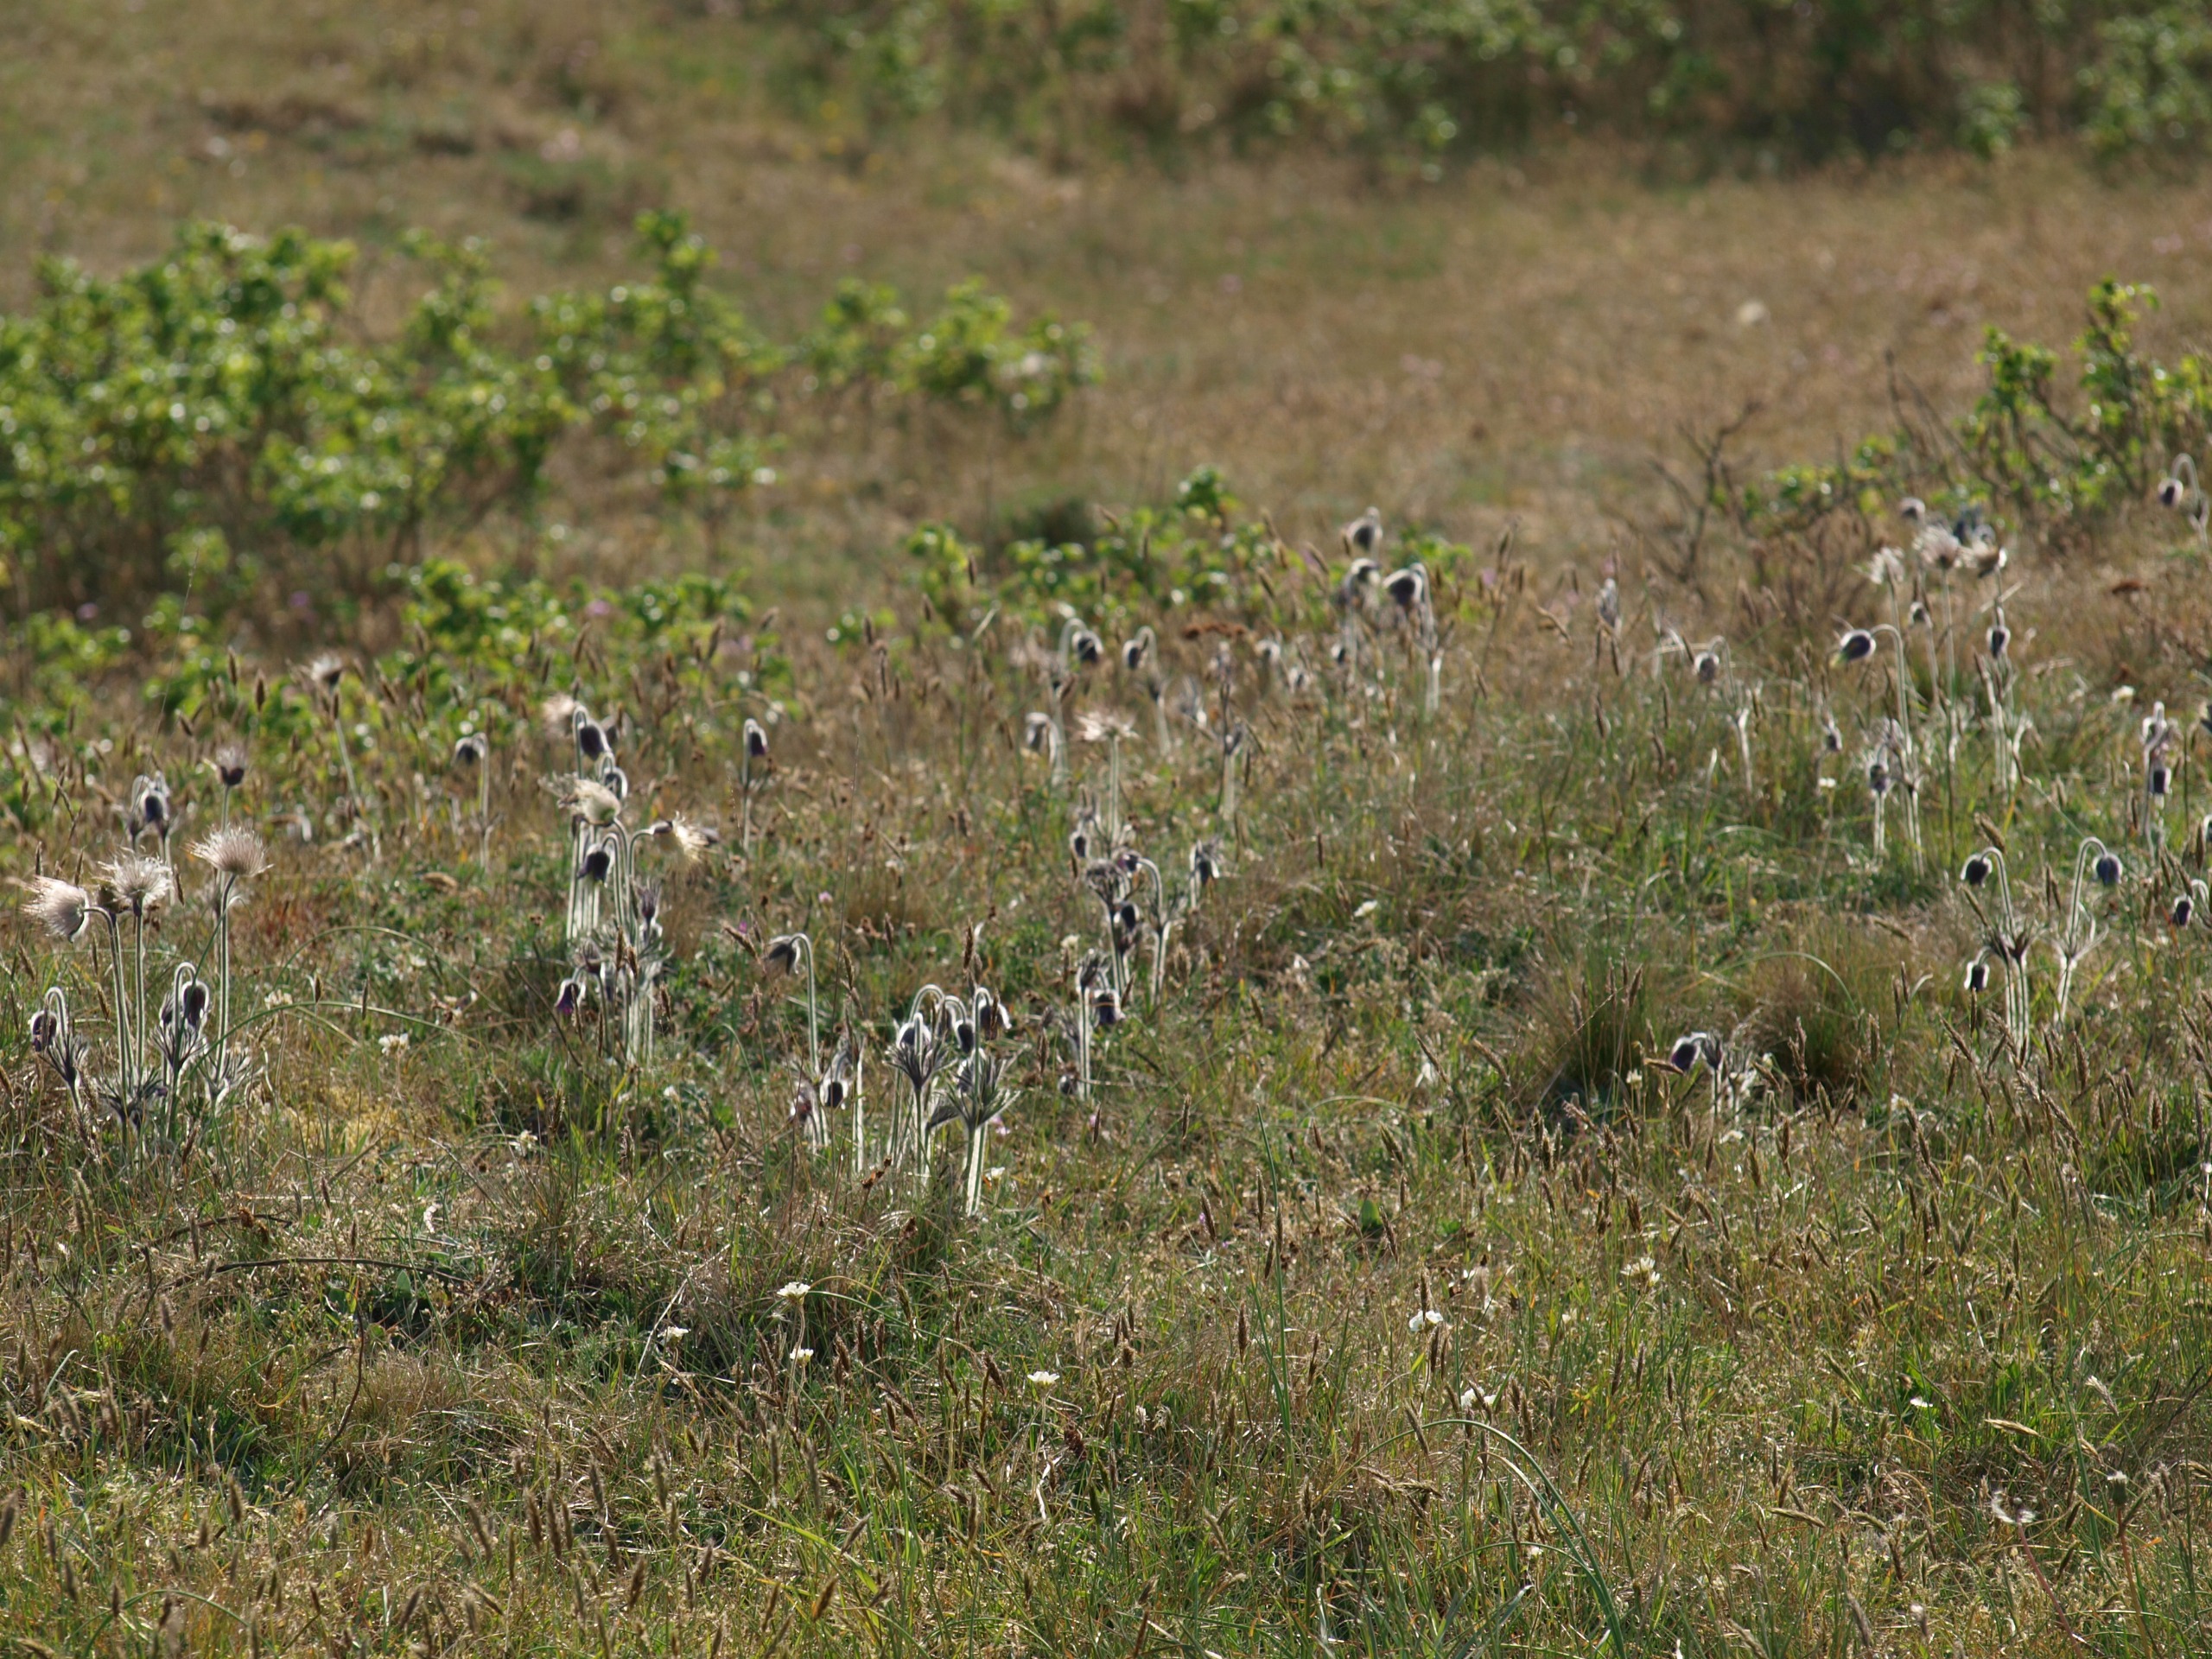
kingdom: Plantae
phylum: Tracheophyta
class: Magnoliopsida
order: Ranunculales
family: Ranunculaceae
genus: Pulsatilla
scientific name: Pulsatilla pratensis
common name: Nikkende kobjælde
